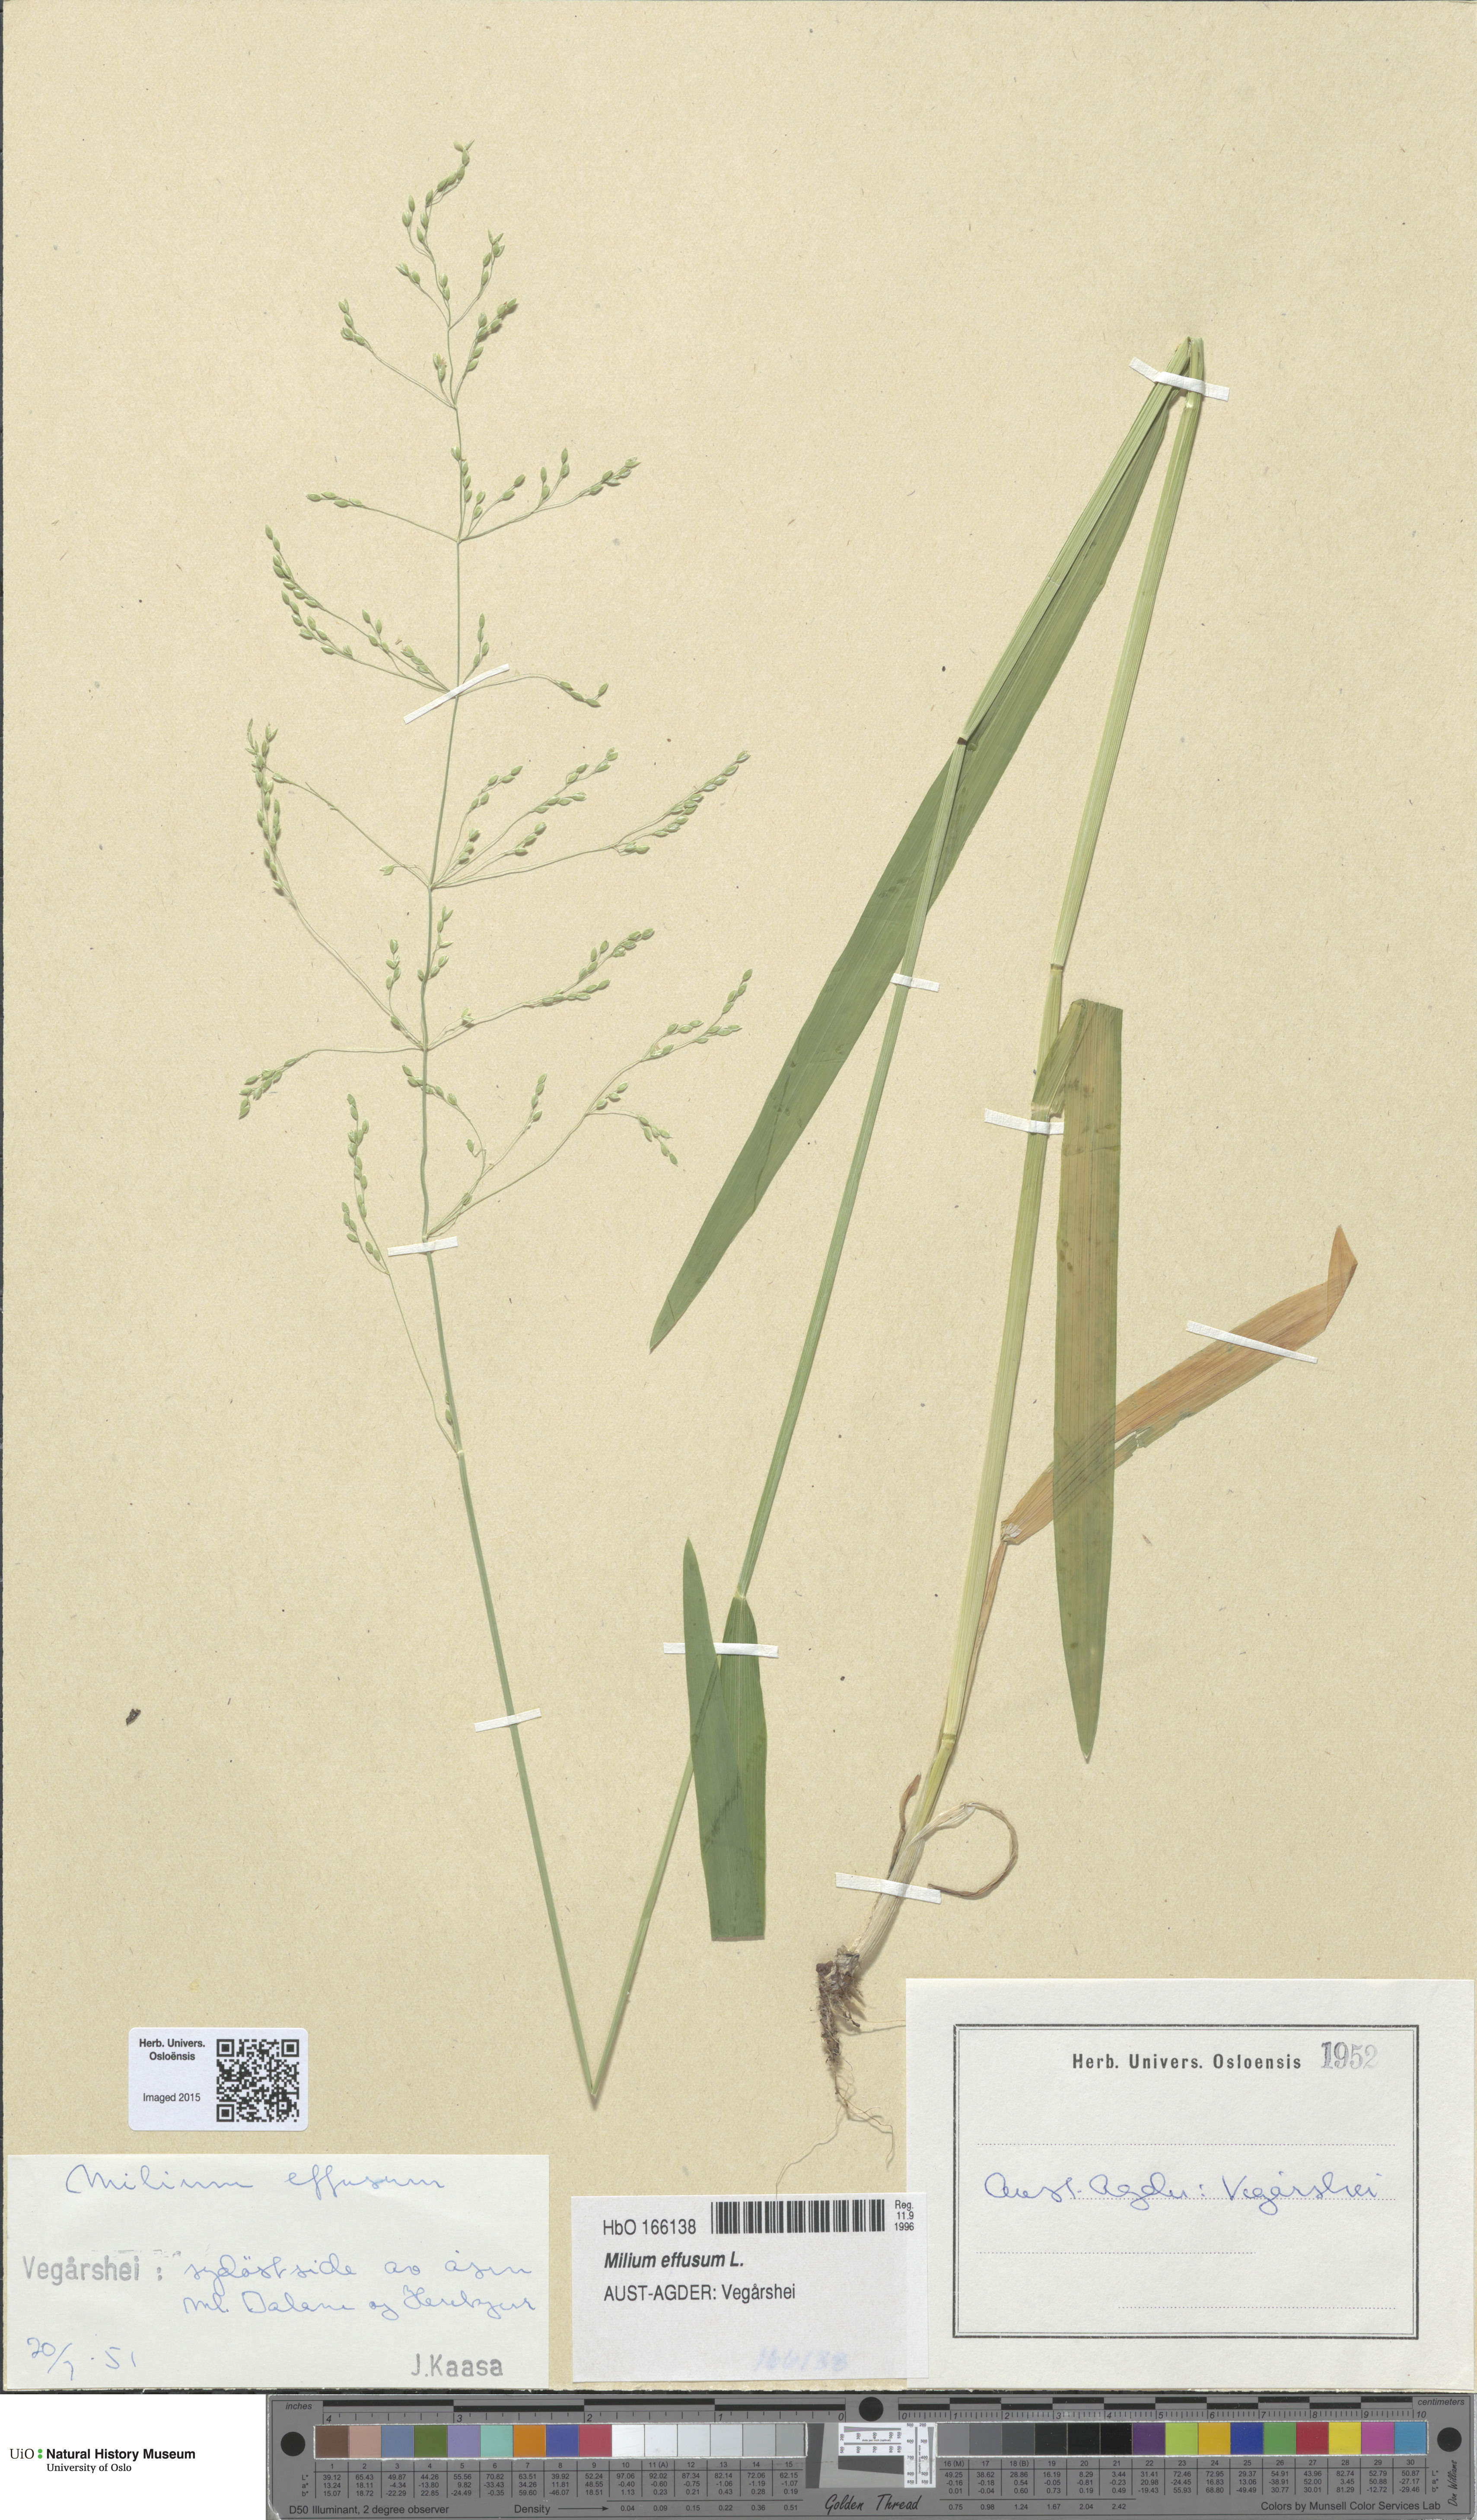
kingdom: Plantae
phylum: Tracheophyta
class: Liliopsida
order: Poales
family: Poaceae
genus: Milium
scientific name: Milium effusum
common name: Wood millet
